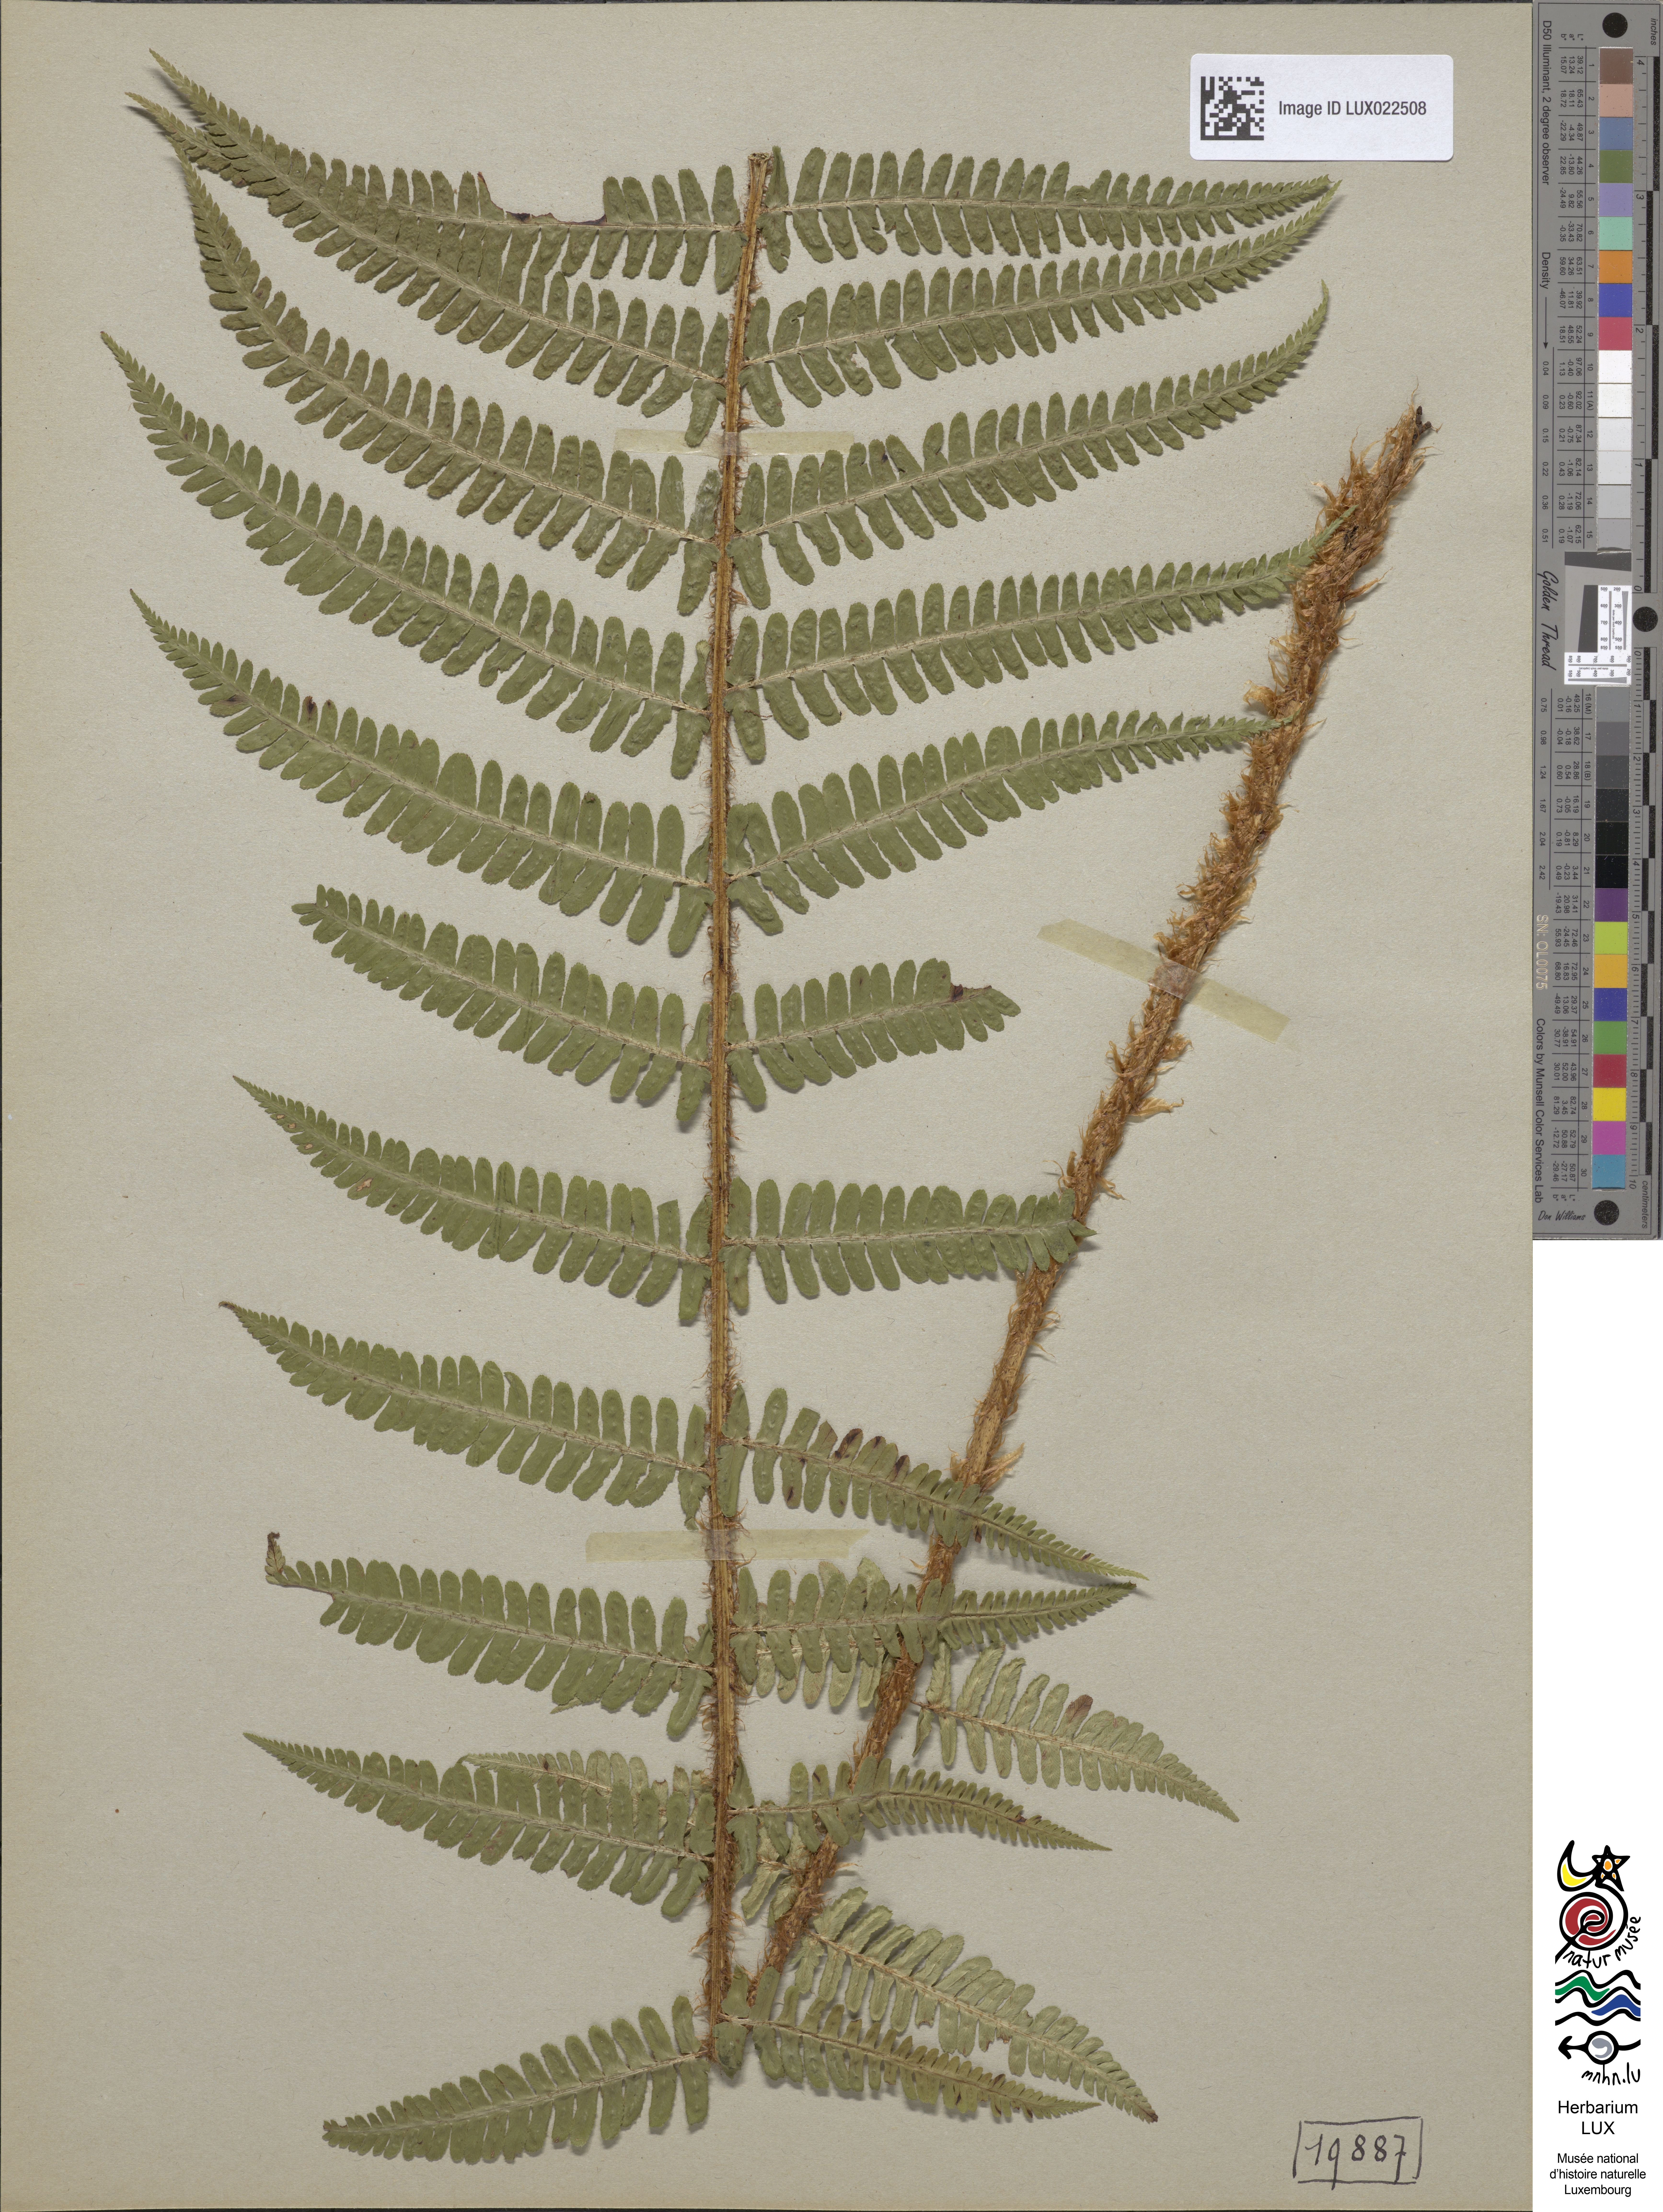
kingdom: Plantae
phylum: Tracheophyta
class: Polypodiopsida
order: Polypodiales
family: Dryopteridaceae
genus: Dryopteris
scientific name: Dryopteris borreri
